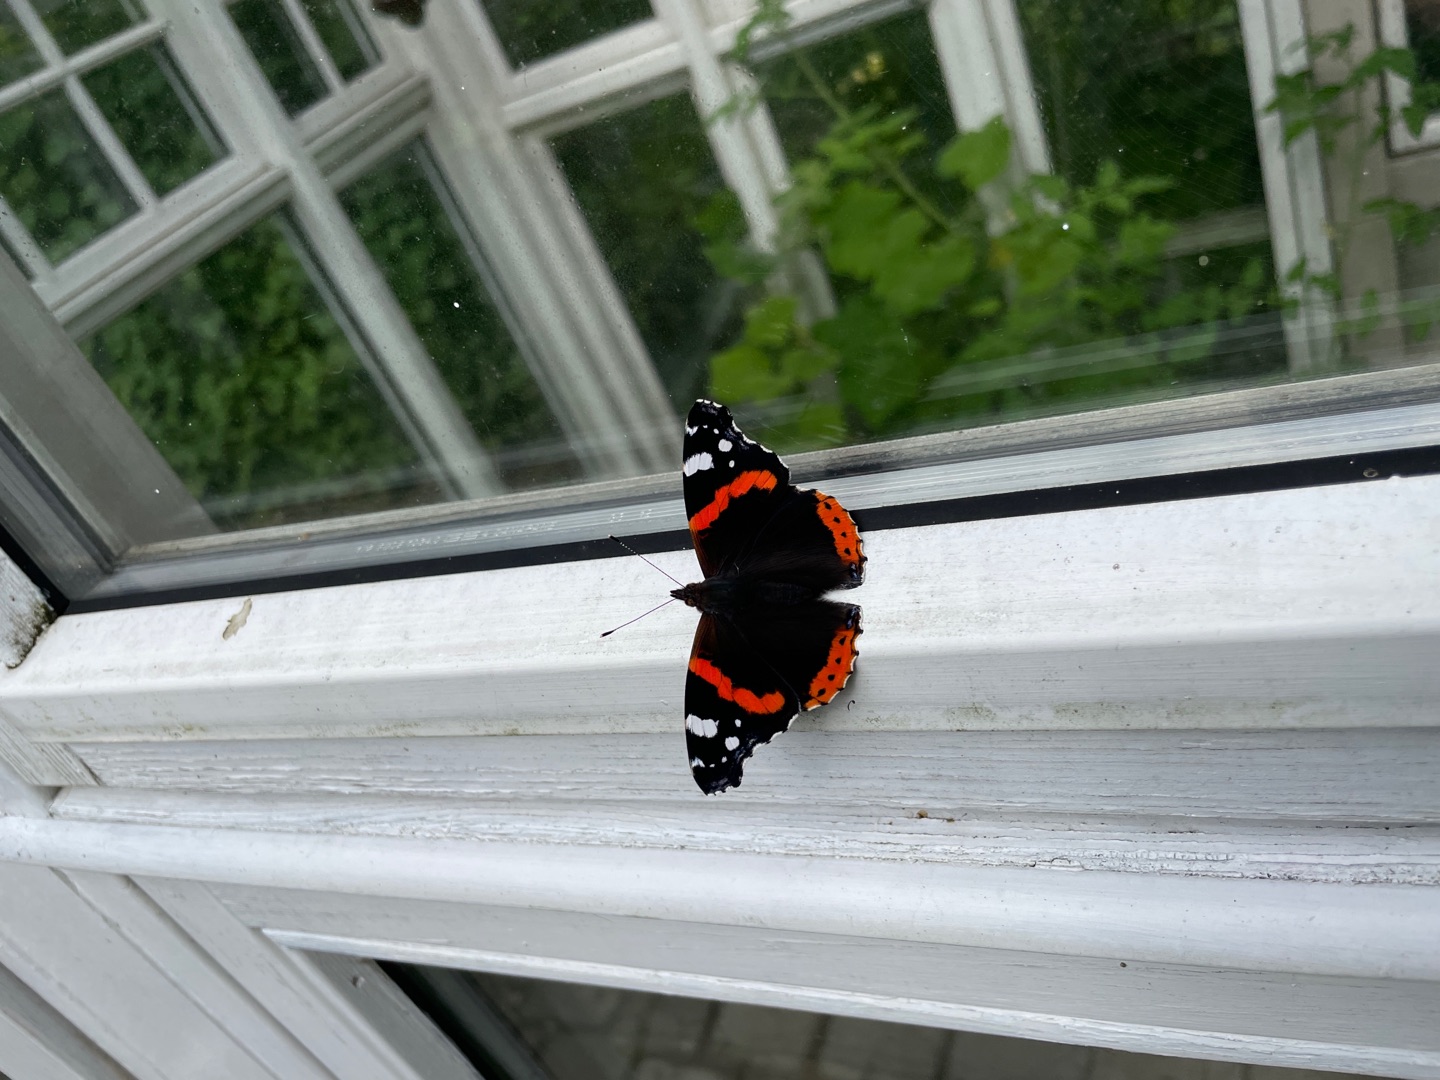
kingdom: Animalia
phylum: Arthropoda
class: Insecta
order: Lepidoptera
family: Nymphalidae
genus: Vanessa
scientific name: Vanessa atalanta
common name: Admiral
